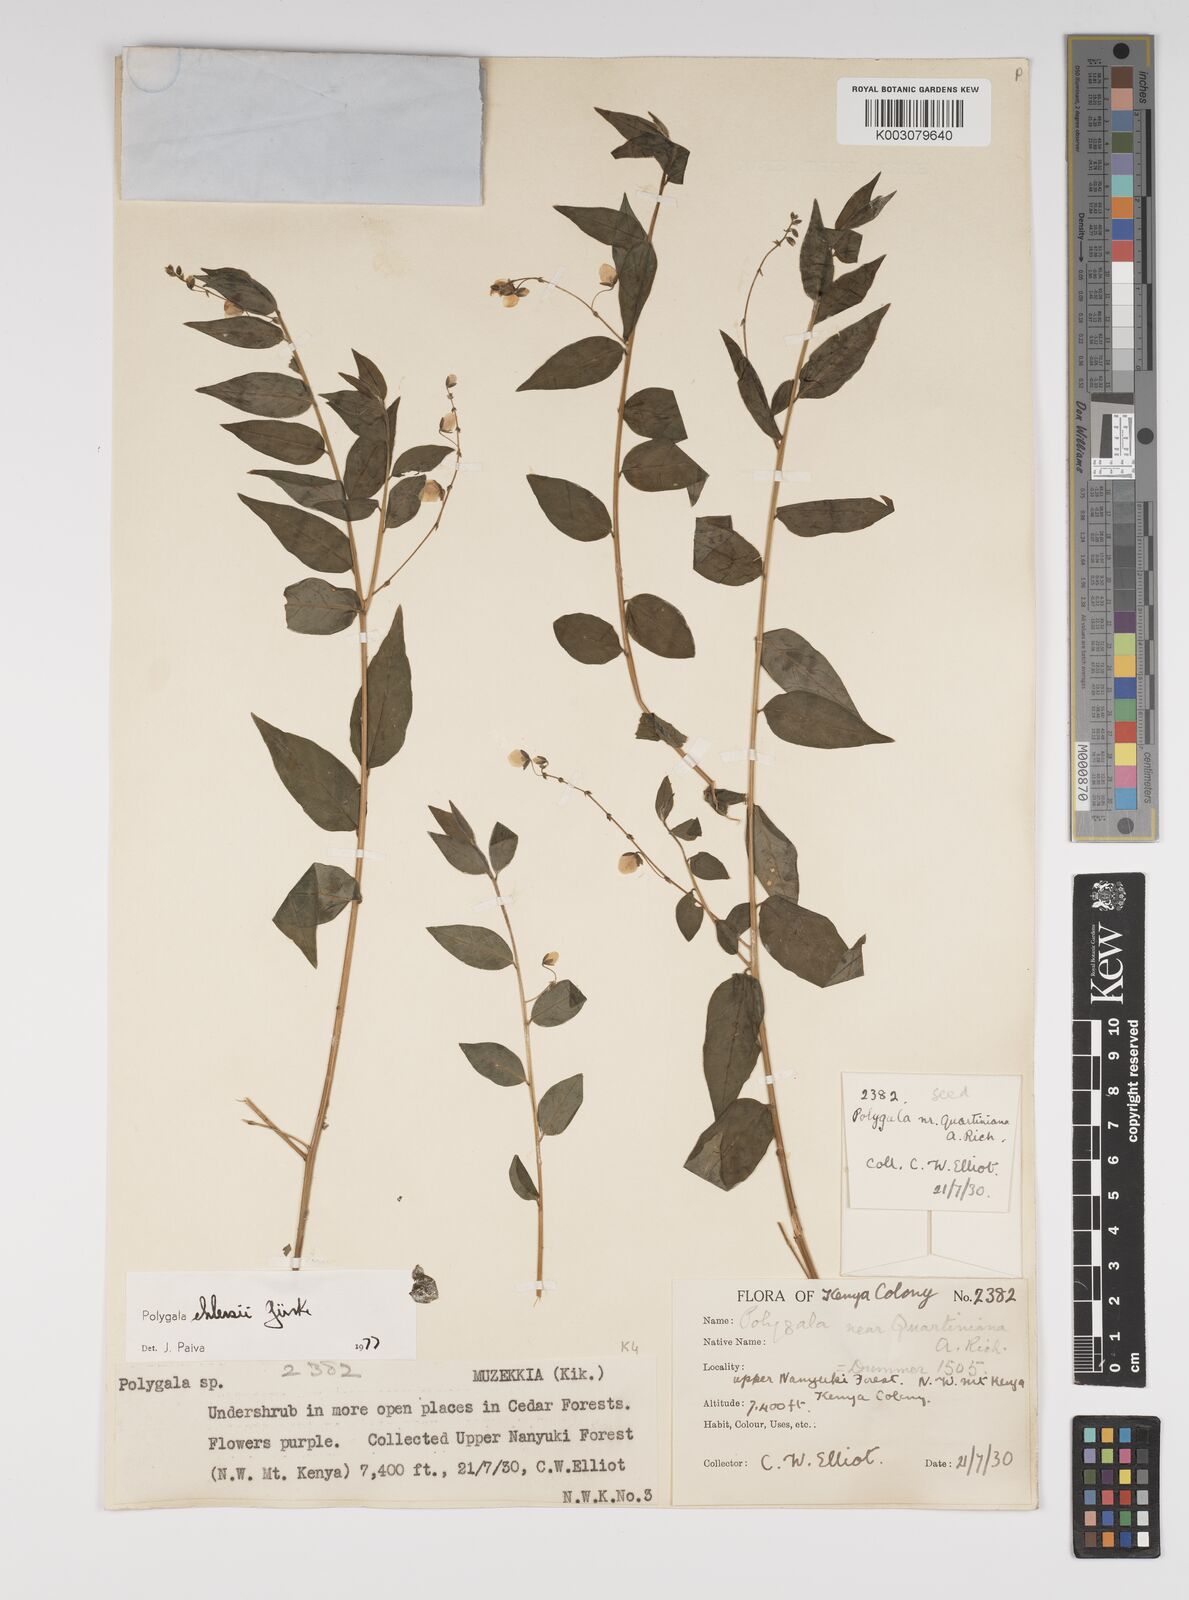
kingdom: Plantae
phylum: Tracheophyta
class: Magnoliopsida
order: Fabales
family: Polygalaceae
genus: Polygala
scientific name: Polygala ehlersii
